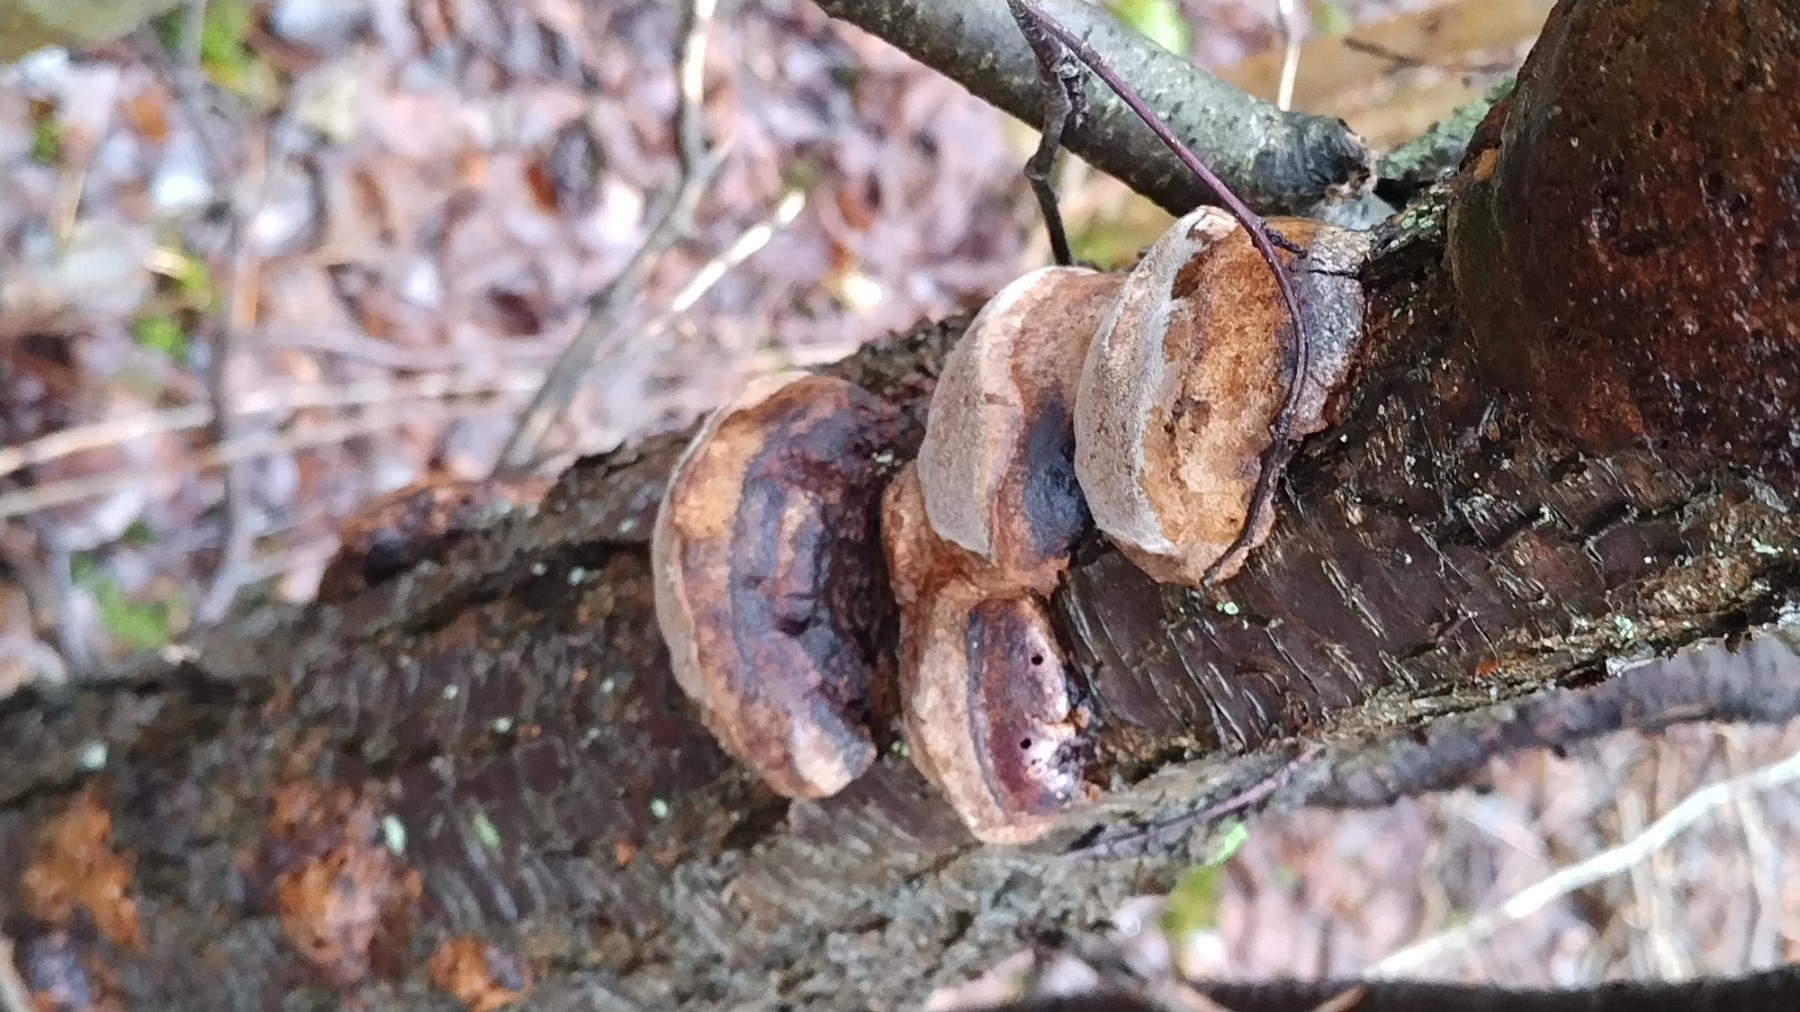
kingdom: Fungi
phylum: Basidiomycota
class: Agaricomycetes
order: Hymenochaetales
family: Hymenochaetaceae
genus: Phellinus
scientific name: Phellinus pomaceus
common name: blomme-ildporesvamp
